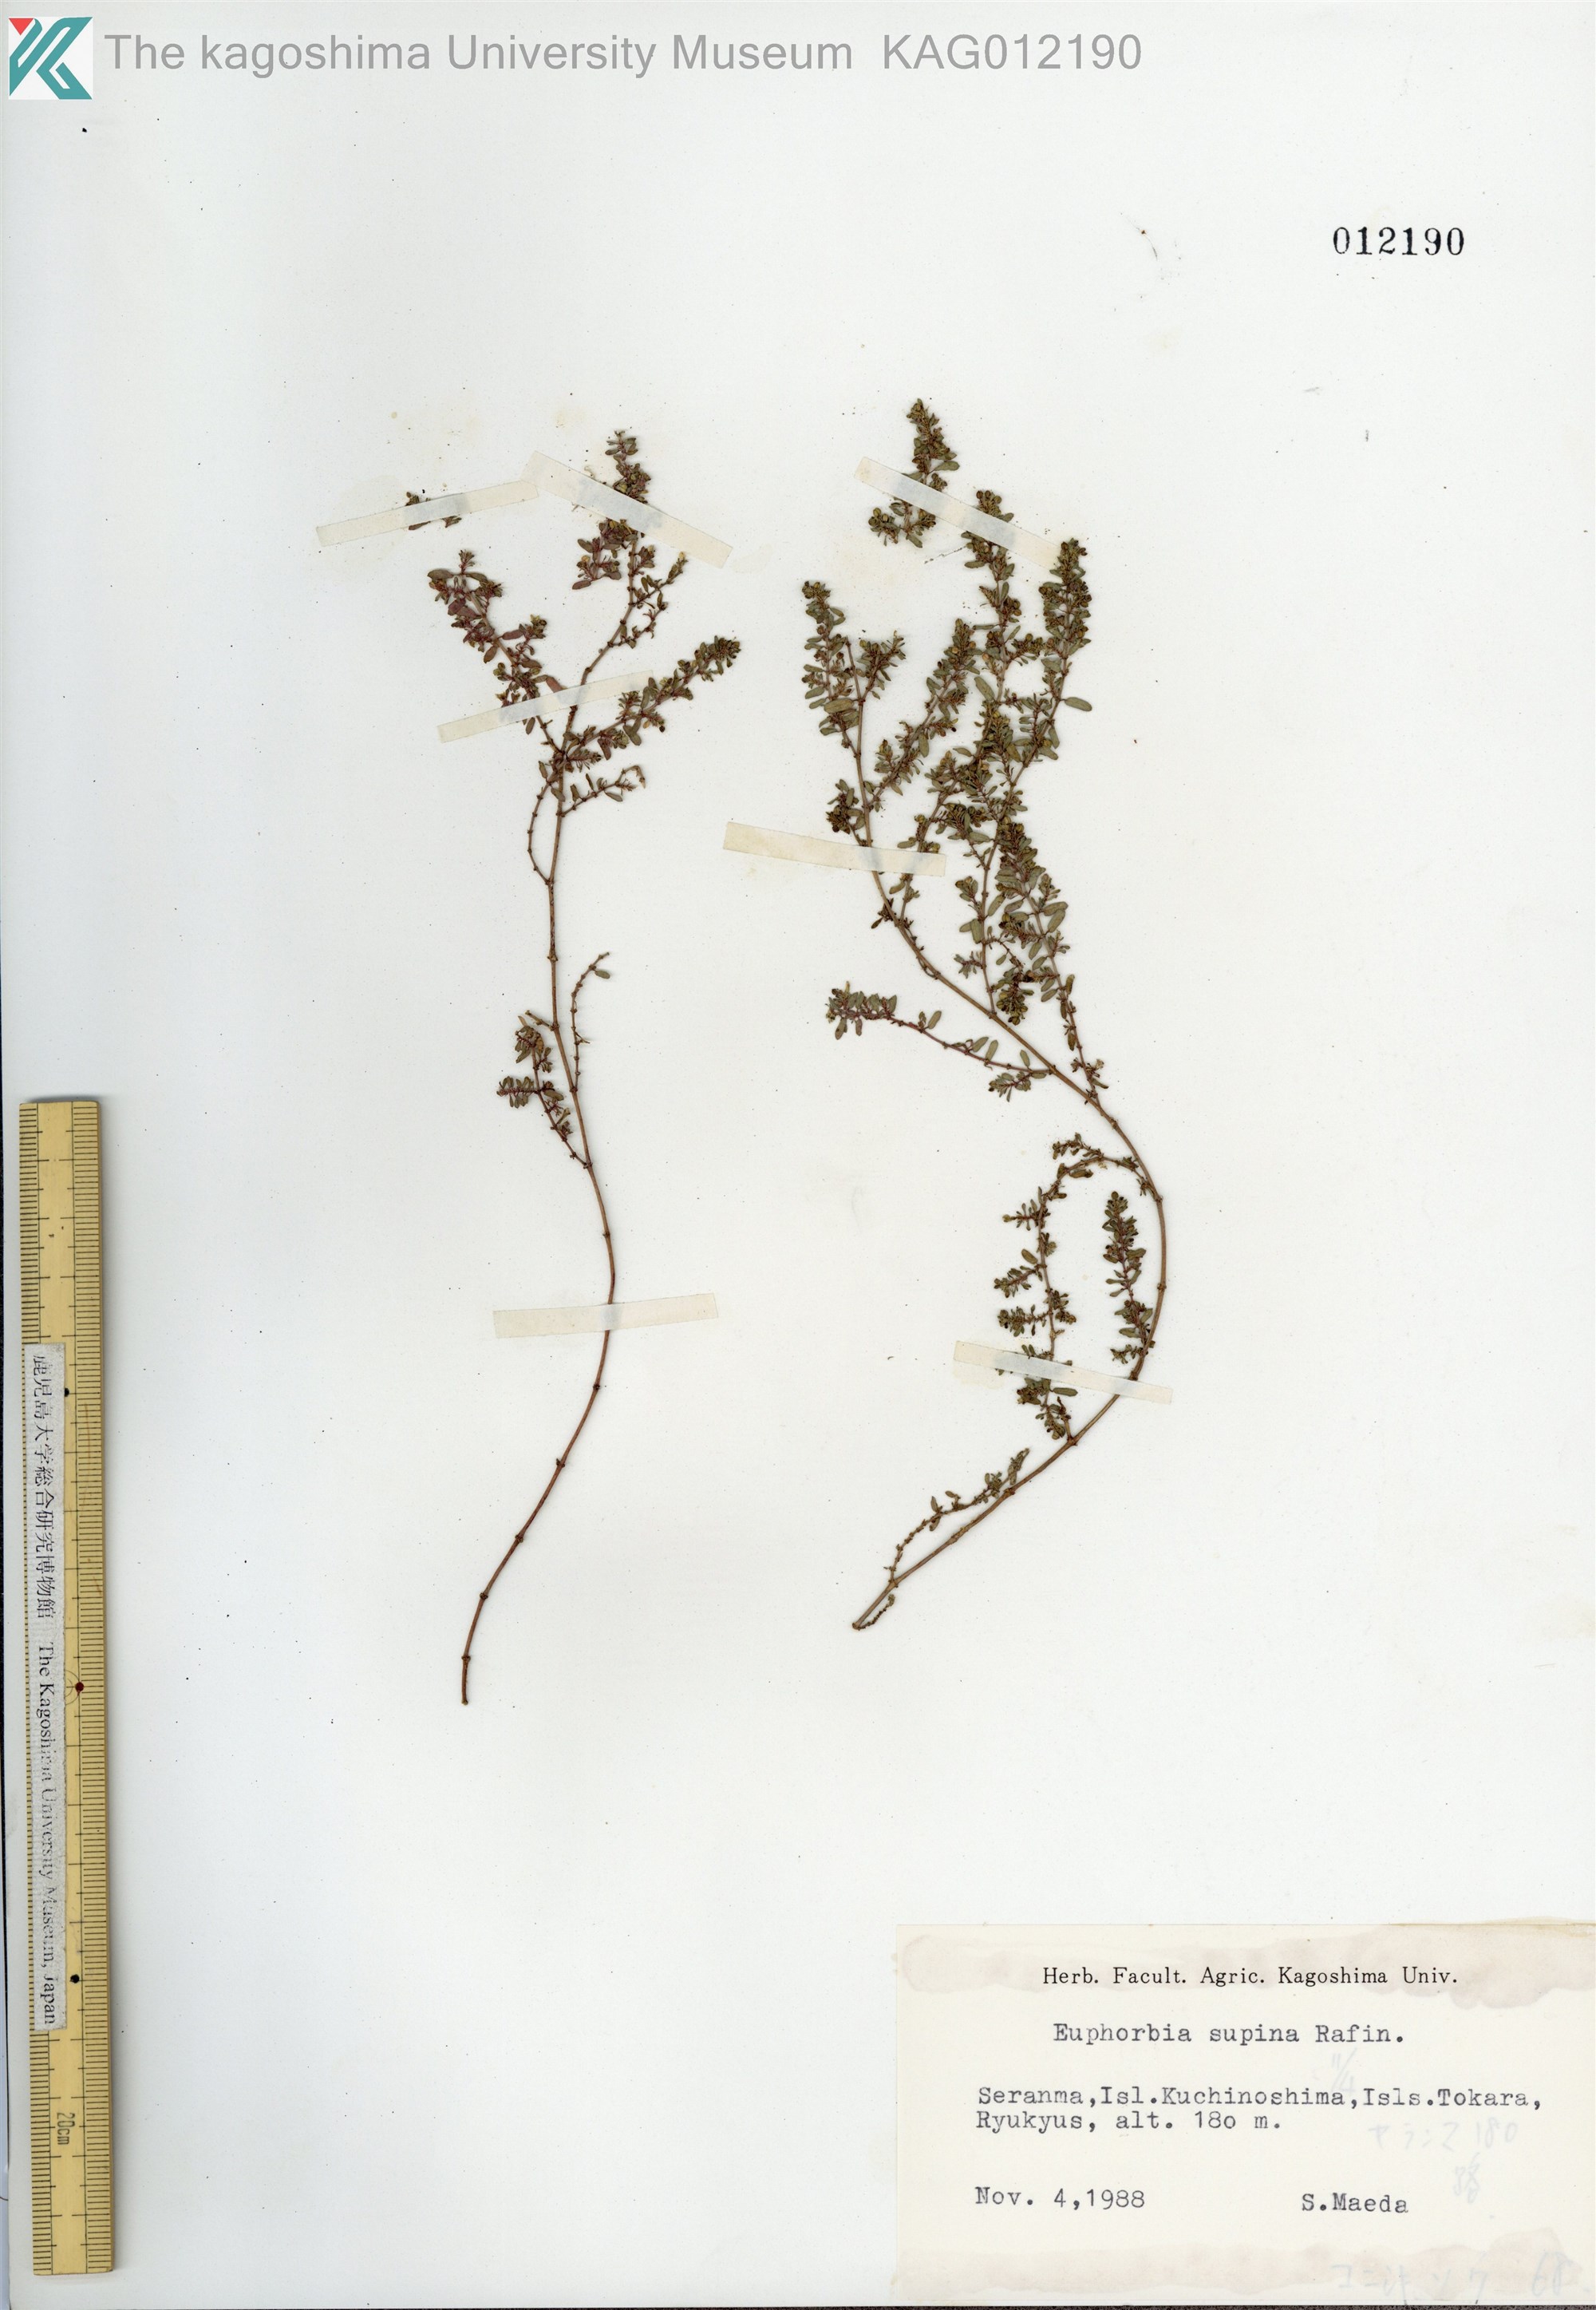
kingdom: Plantae
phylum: Tracheophyta
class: Magnoliopsida
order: Malpighiales
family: Euphorbiaceae
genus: Euphorbia
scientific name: Euphorbia maculata
